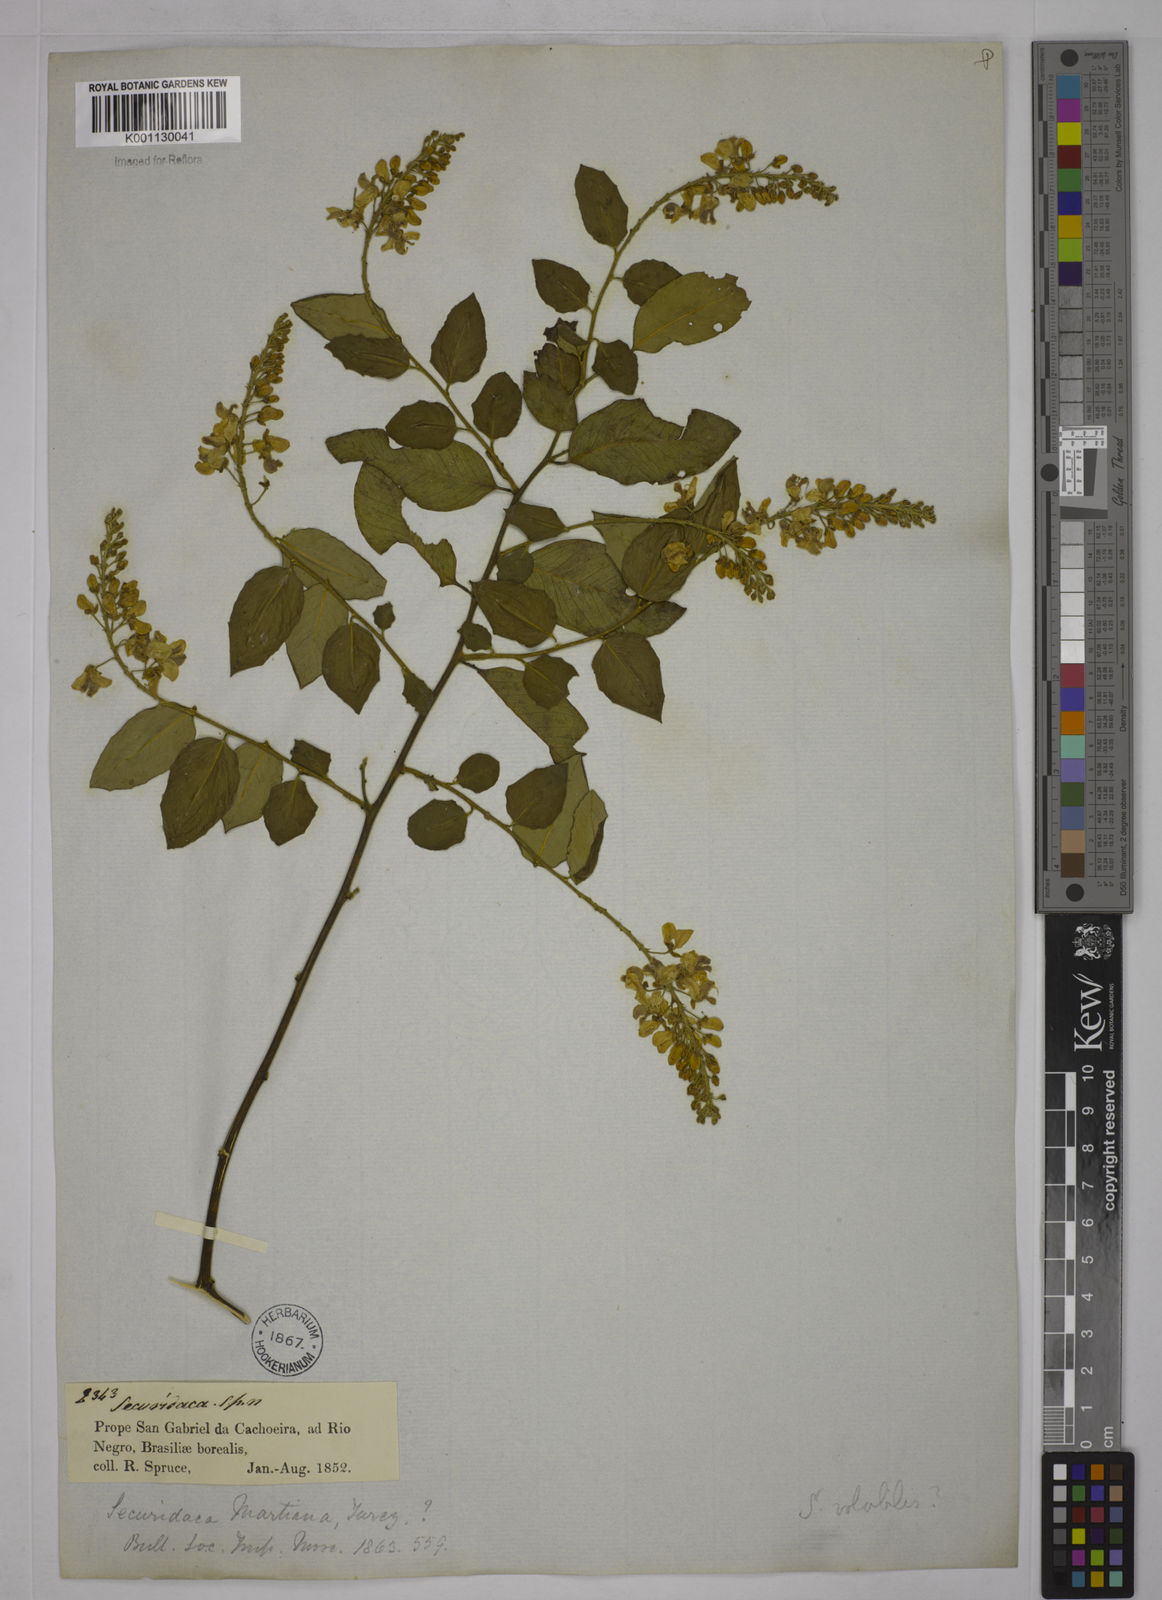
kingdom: Plantae
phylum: Tracheophyta
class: Magnoliopsida
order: Fabales
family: Polygalaceae
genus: Securidaca
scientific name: Securidaca
